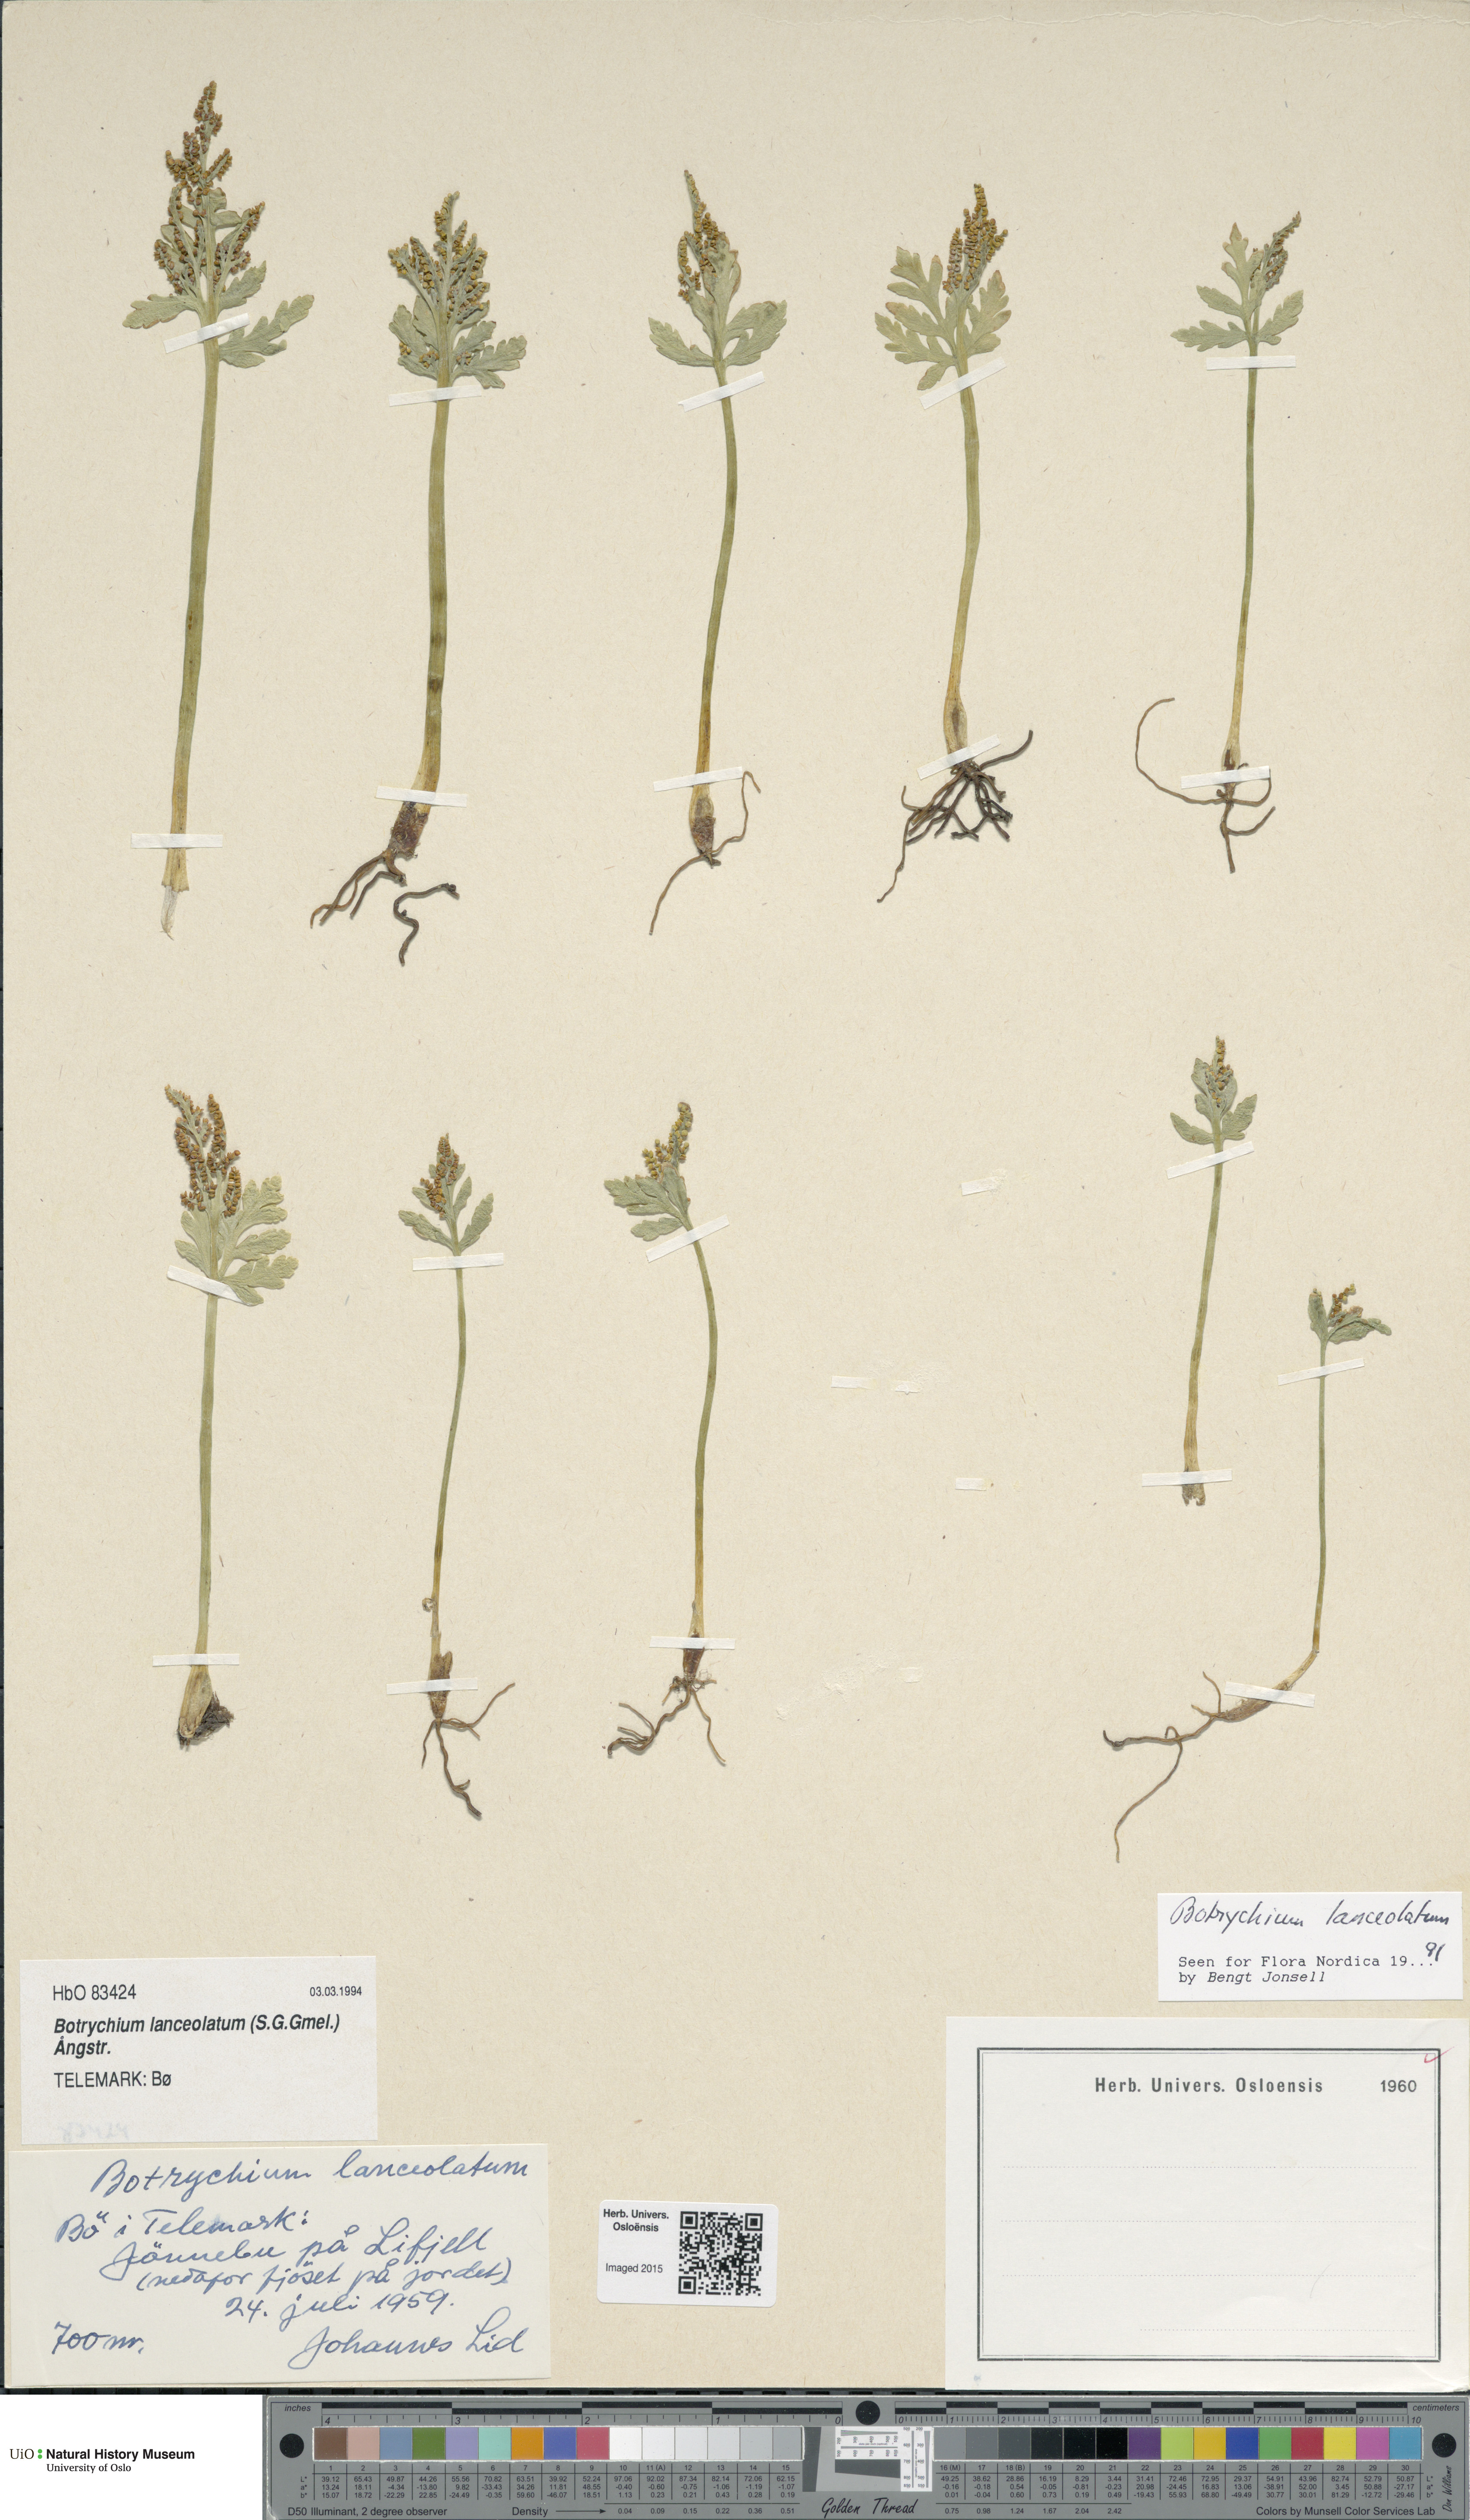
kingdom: Plantae
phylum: Tracheophyta
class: Polypodiopsida
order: Ophioglossales
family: Ophioglossaceae
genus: Botrychium
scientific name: Botrychium lanceolatum
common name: Lance-leaved moonwort
